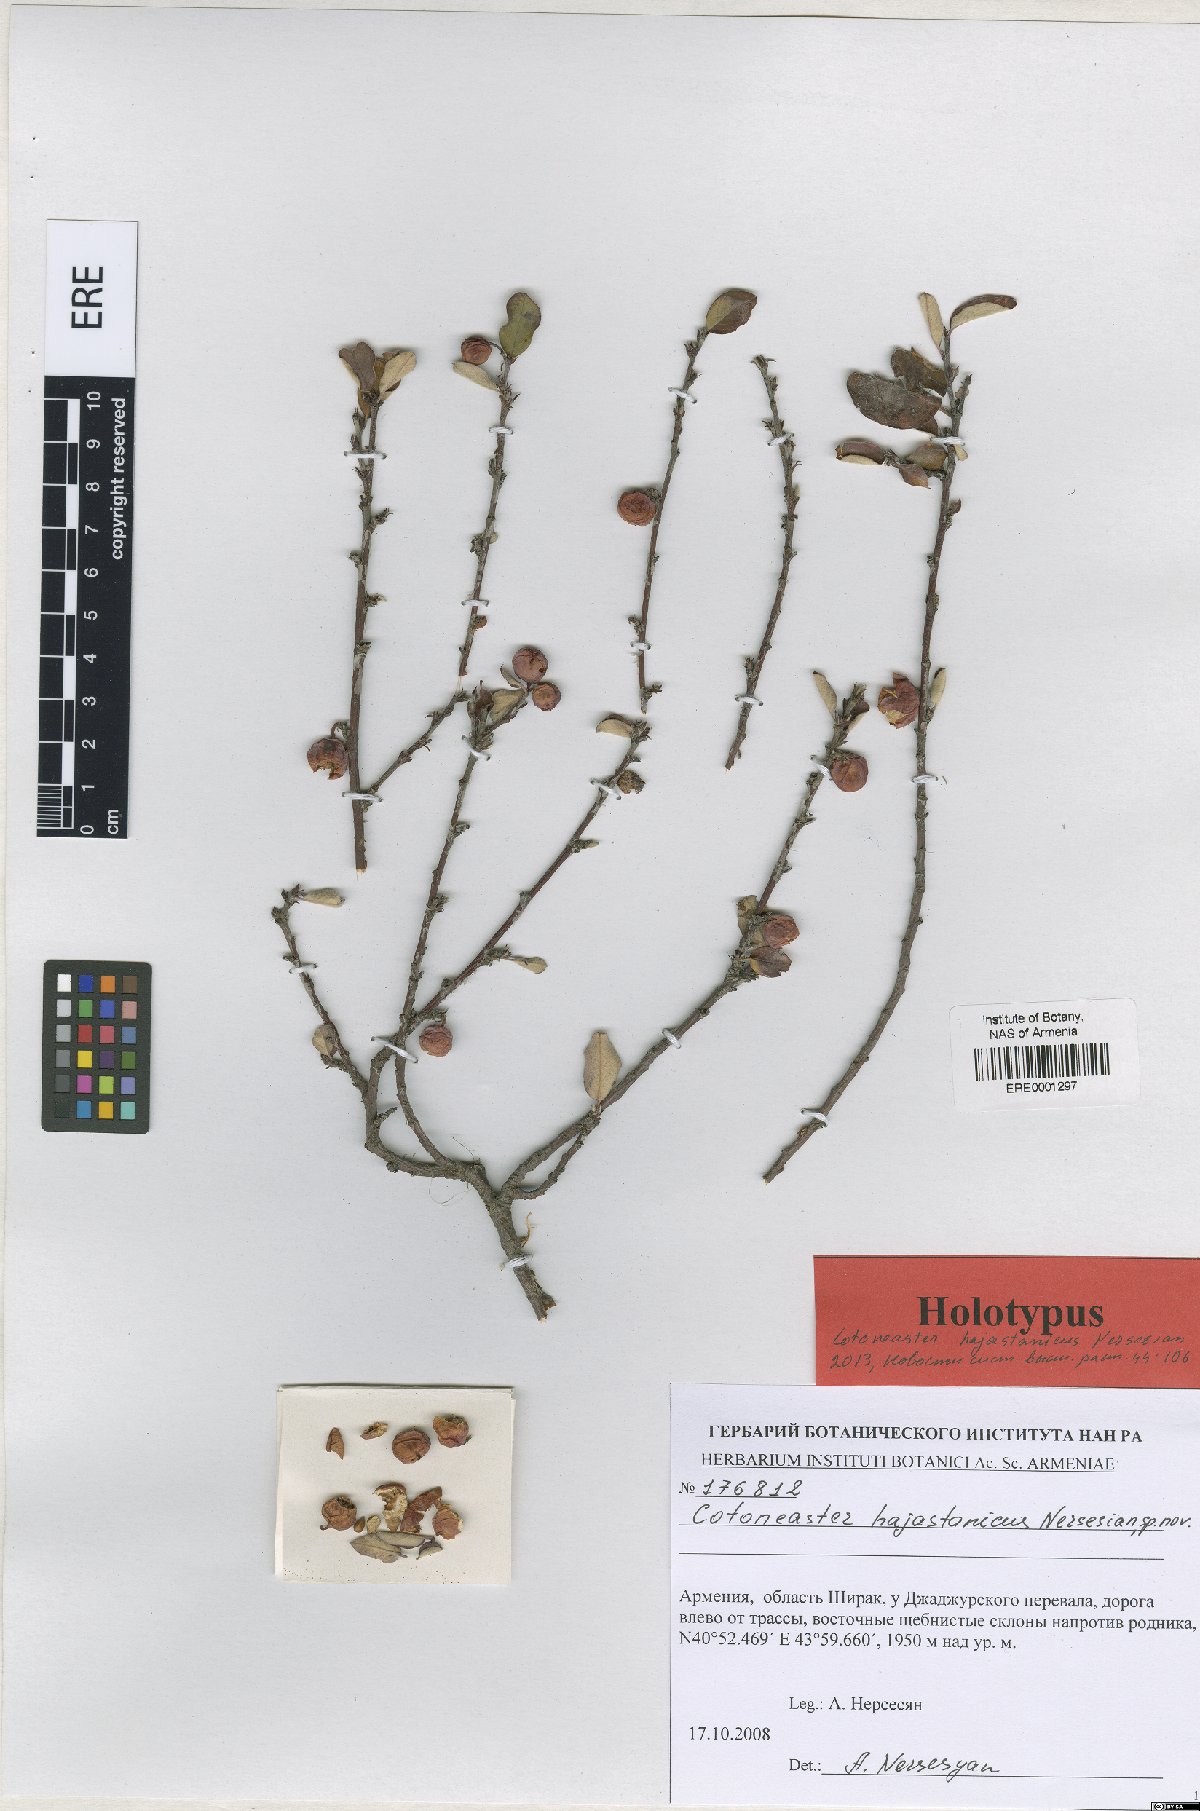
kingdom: Plantae
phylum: Tracheophyta
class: Magnoliopsida
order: Rosales
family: Rosaceae
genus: Cotoneaster
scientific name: Cotoneaster hajastanicus
